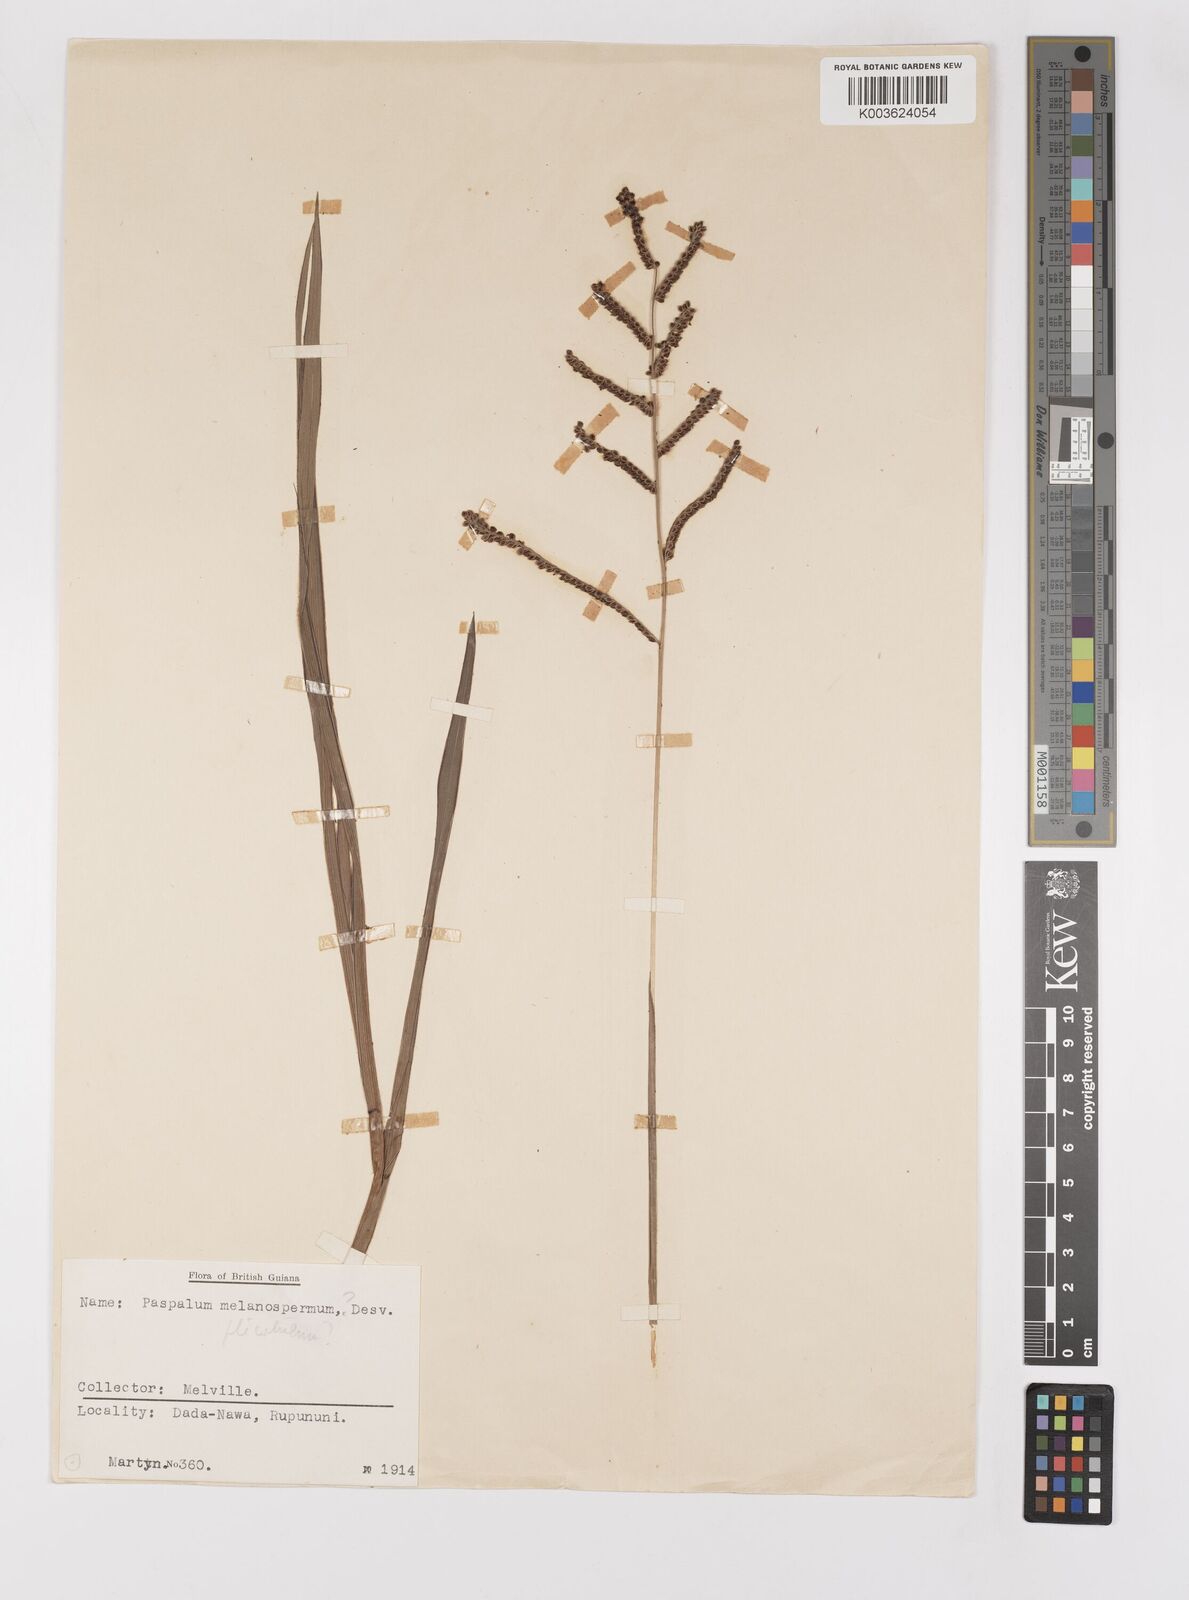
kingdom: Plantae
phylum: Tracheophyta
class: Liliopsida
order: Poales
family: Poaceae
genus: Paspalum
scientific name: Paspalum plicatulum
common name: Top paspalum
